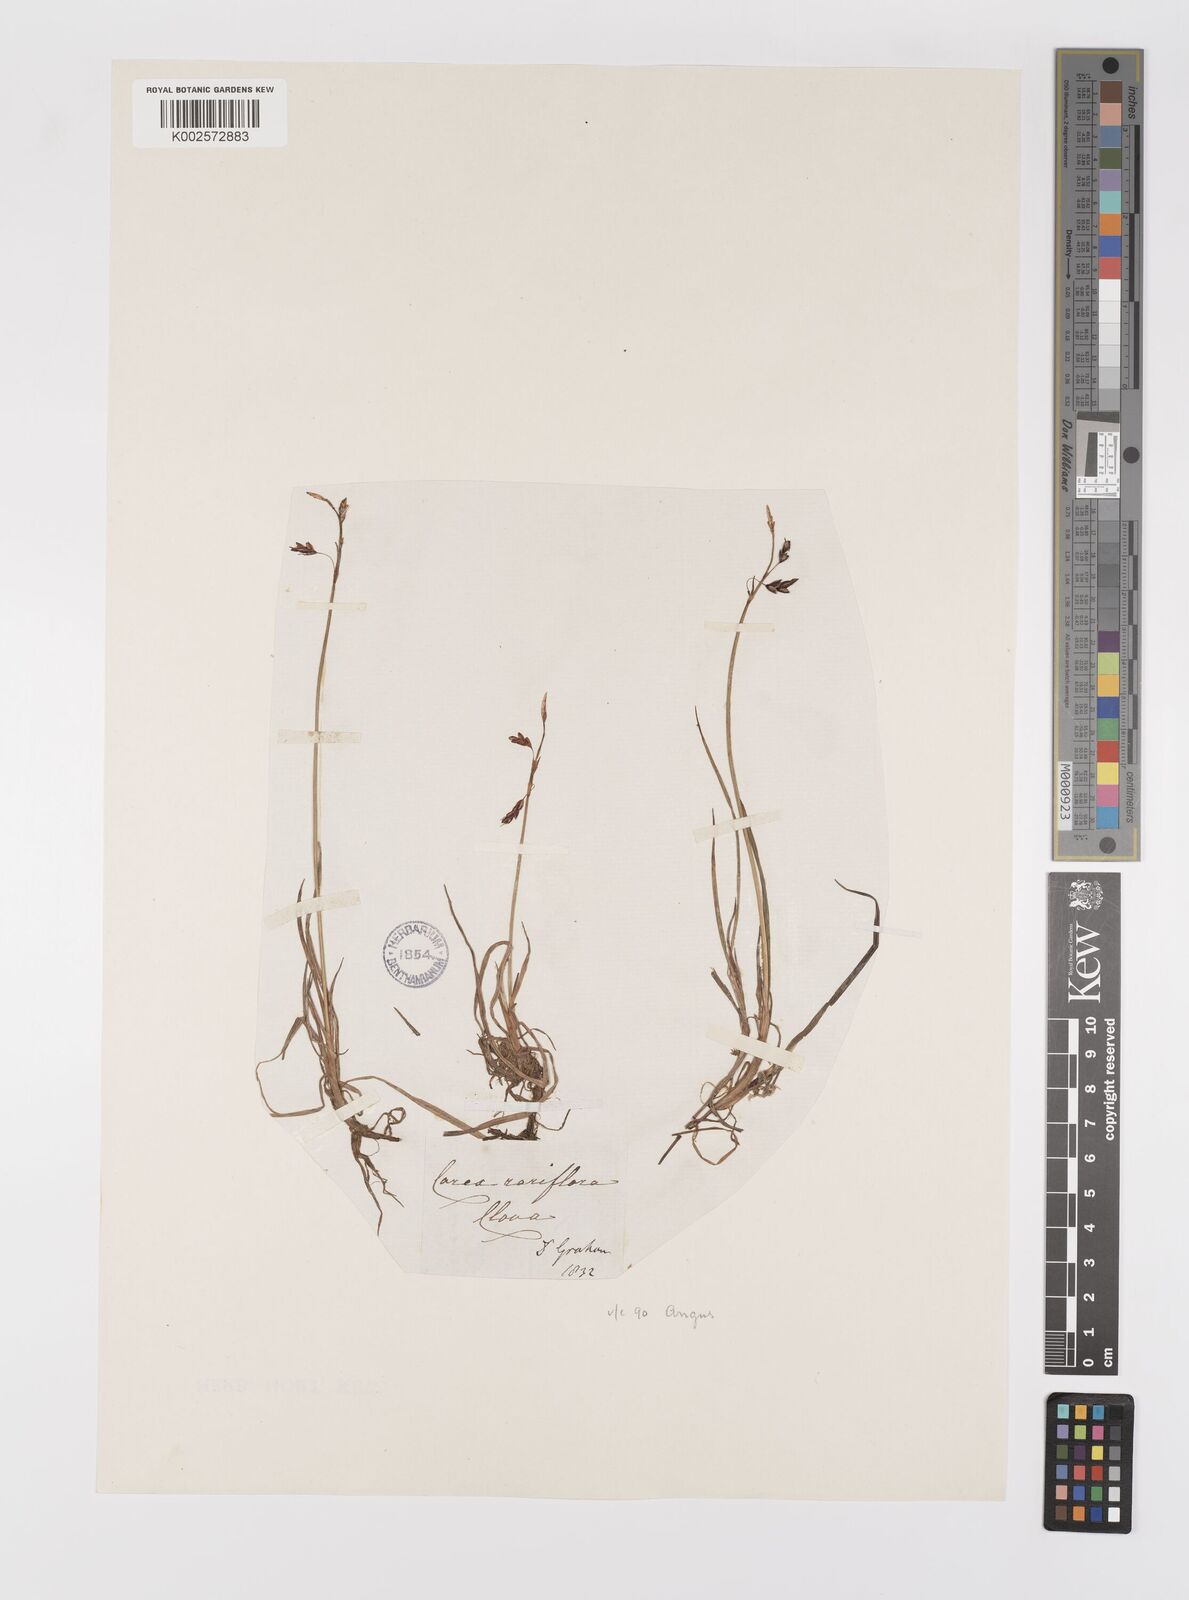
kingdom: Plantae
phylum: Tracheophyta
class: Liliopsida
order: Poales
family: Cyperaceae
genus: Carex
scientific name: Carex rariflora
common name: Loose-flowered alpine sedge
